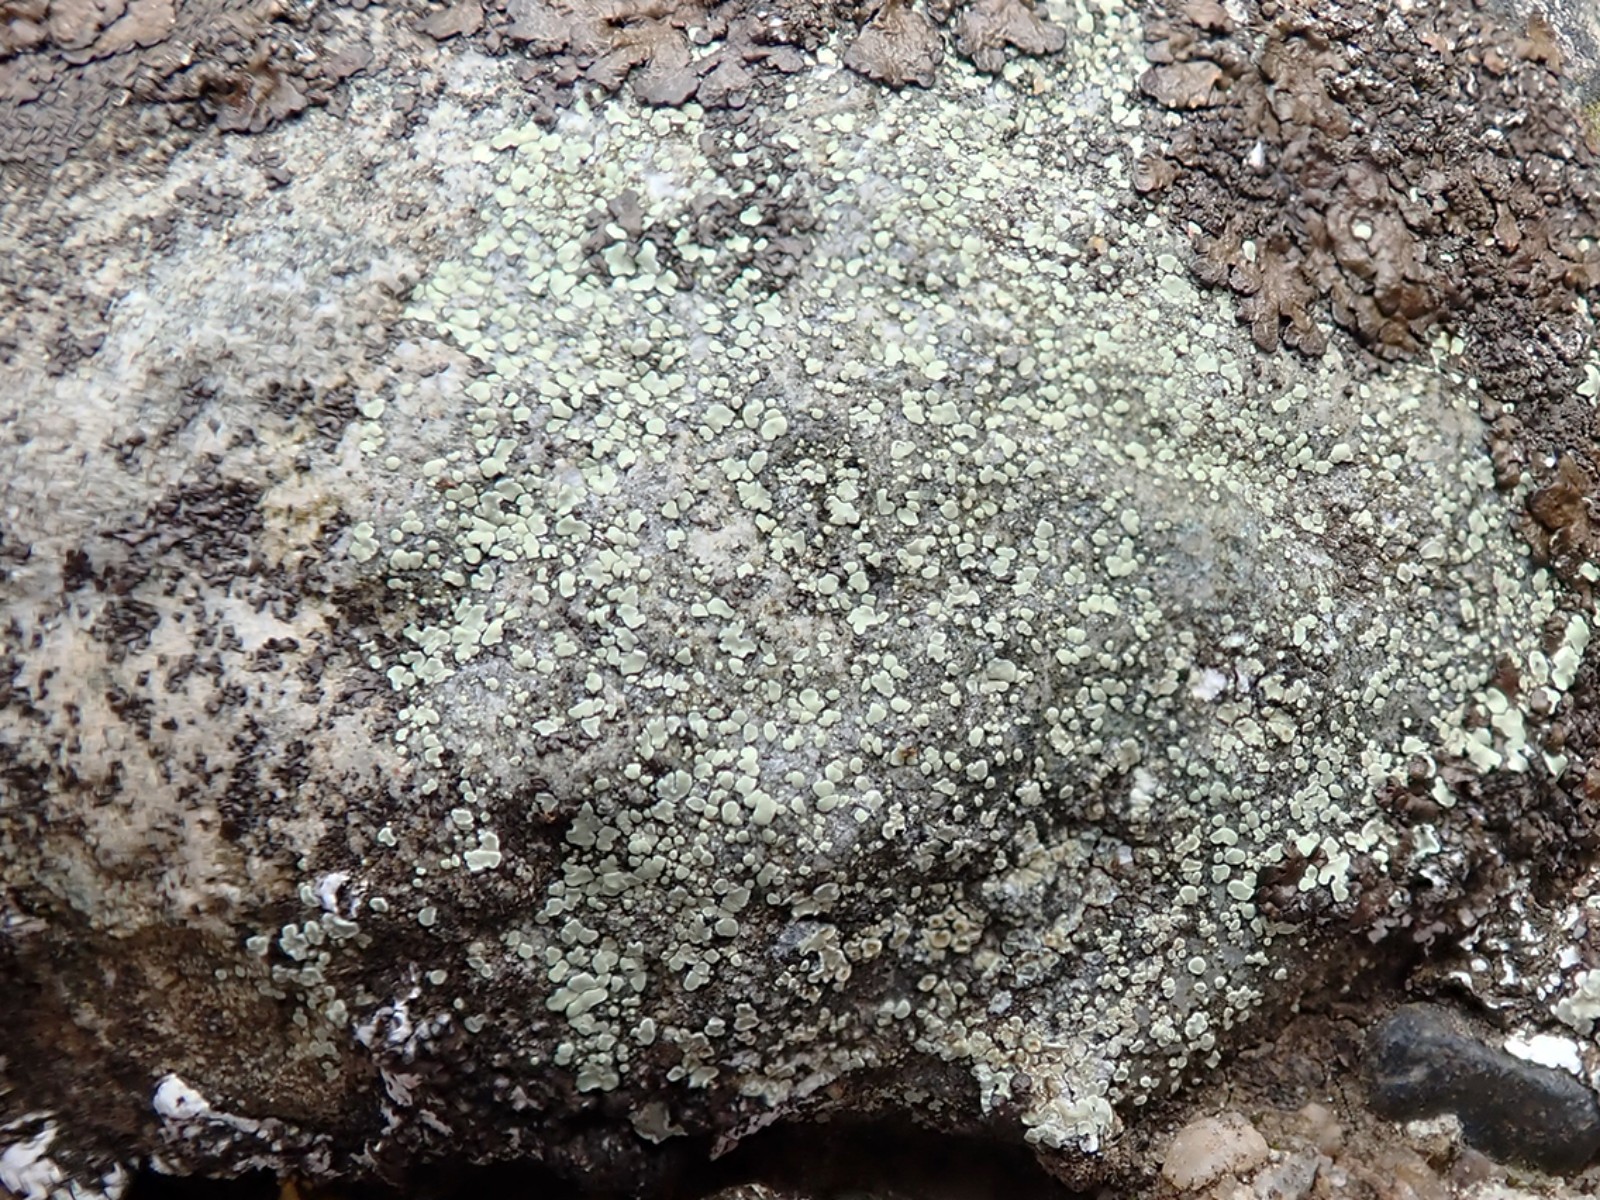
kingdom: Fungi
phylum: Ascomycota
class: Lecanoromycetes
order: Lecanorales
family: Lecanoraceae
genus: Lecanora
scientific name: Lecanora polytropa
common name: bleggrøn kantskivelav
